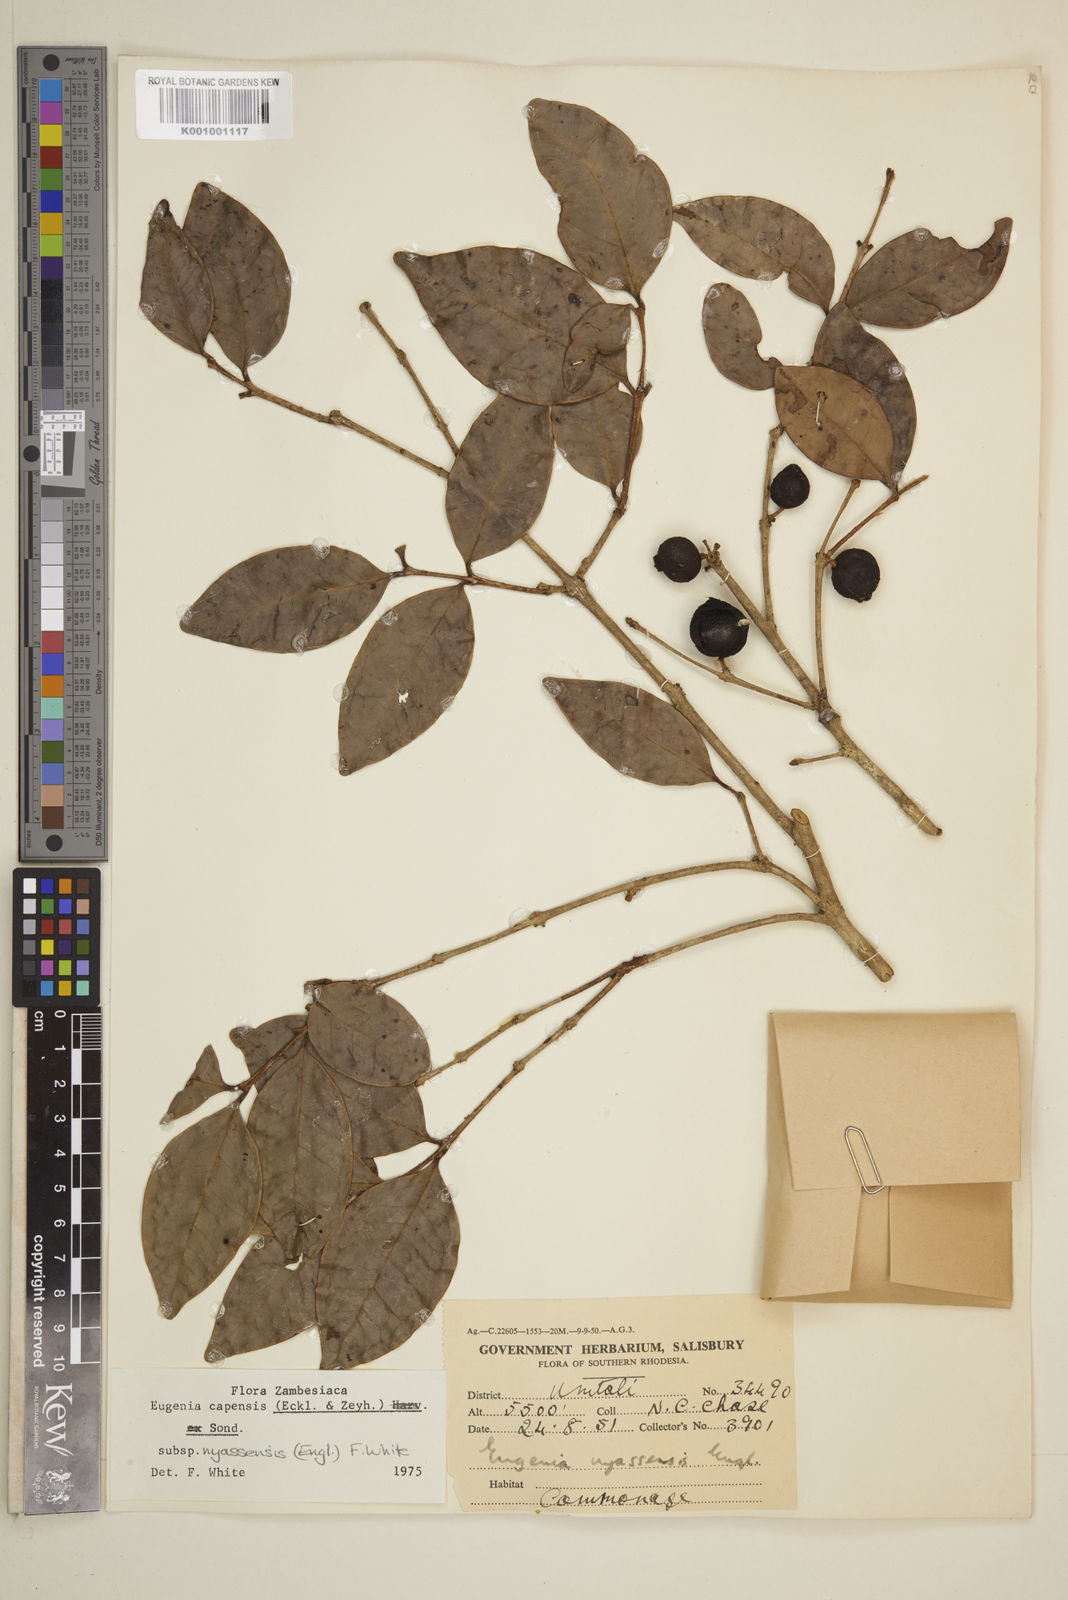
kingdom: Plantae
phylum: Tracheophyta
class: Magnoliopsida
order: Myrtales
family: Myrtaceae
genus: Eugenia
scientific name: Eugenia capensis
